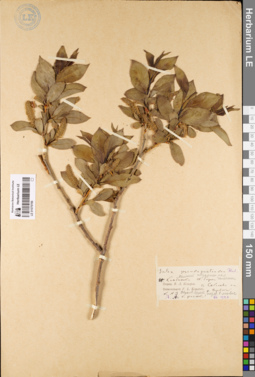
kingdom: Plantae
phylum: Tracheophyta
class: Magnoliopsida
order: Malpighiales
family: Salicaceae
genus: Salix
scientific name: Salix pseudopentandra
